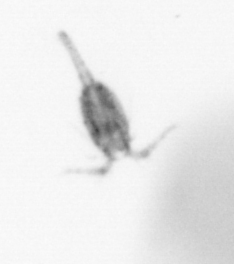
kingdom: Animalia
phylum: Arthropoda
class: Copepoda
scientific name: Copepoda
